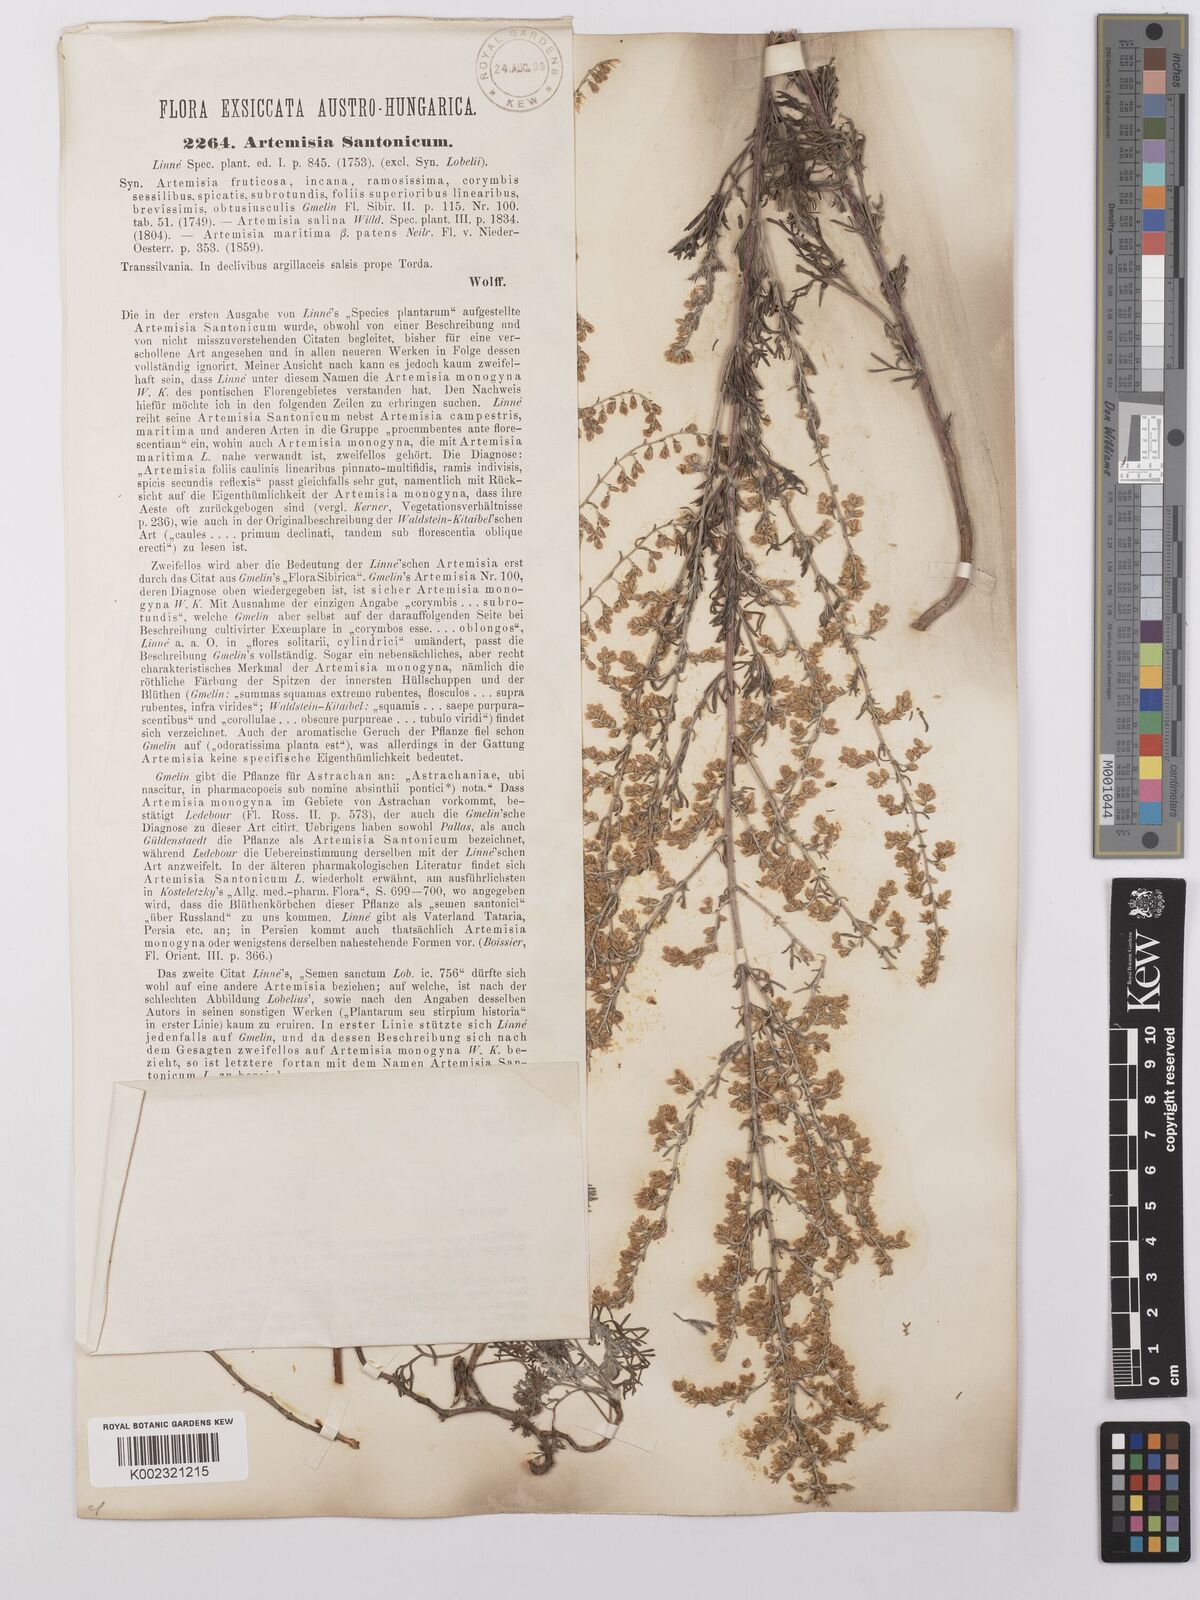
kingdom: Plantae
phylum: Tracheophyta
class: Magnoliopsida
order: Asterales
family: Asteraceae
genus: Artemisia
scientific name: Artemisia maritima
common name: Wormseed
